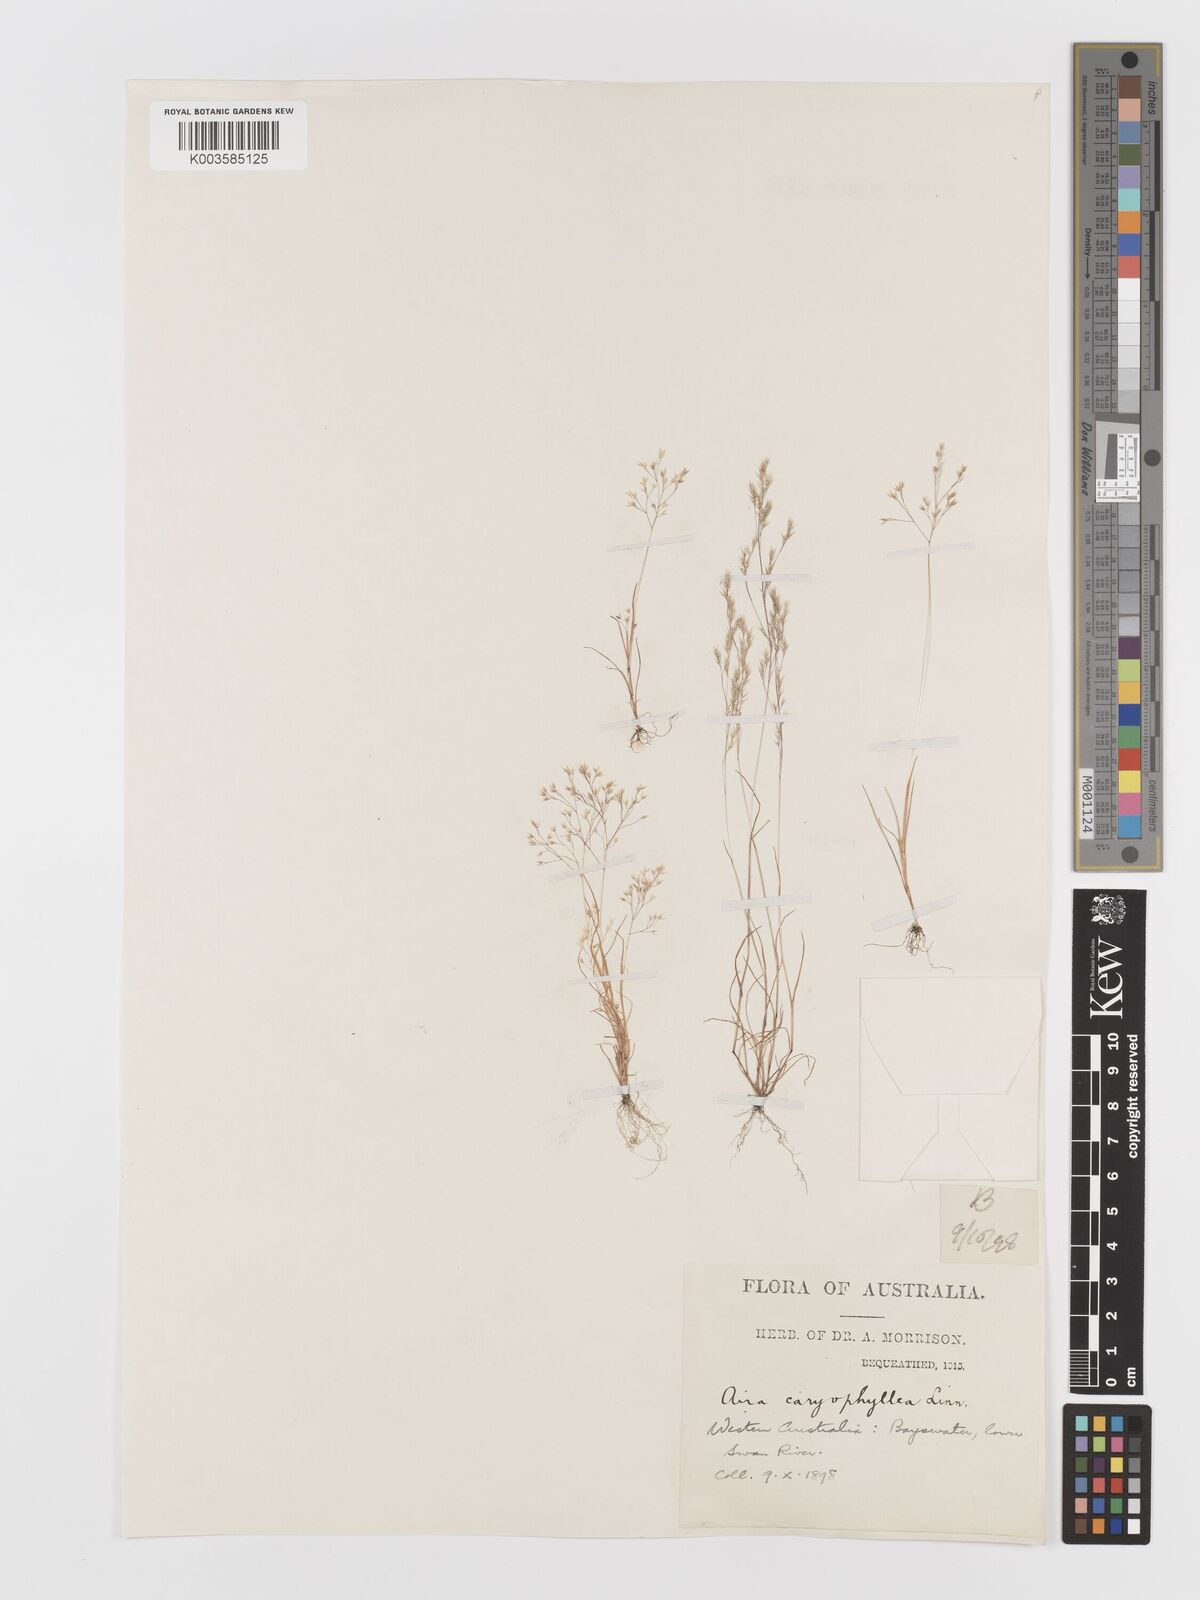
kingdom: Plantae
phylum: Tracheophyta
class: Liliopsida
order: Poales
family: Poaceae
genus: Aira
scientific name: Aira cupaniana
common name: Silver hairgrass
